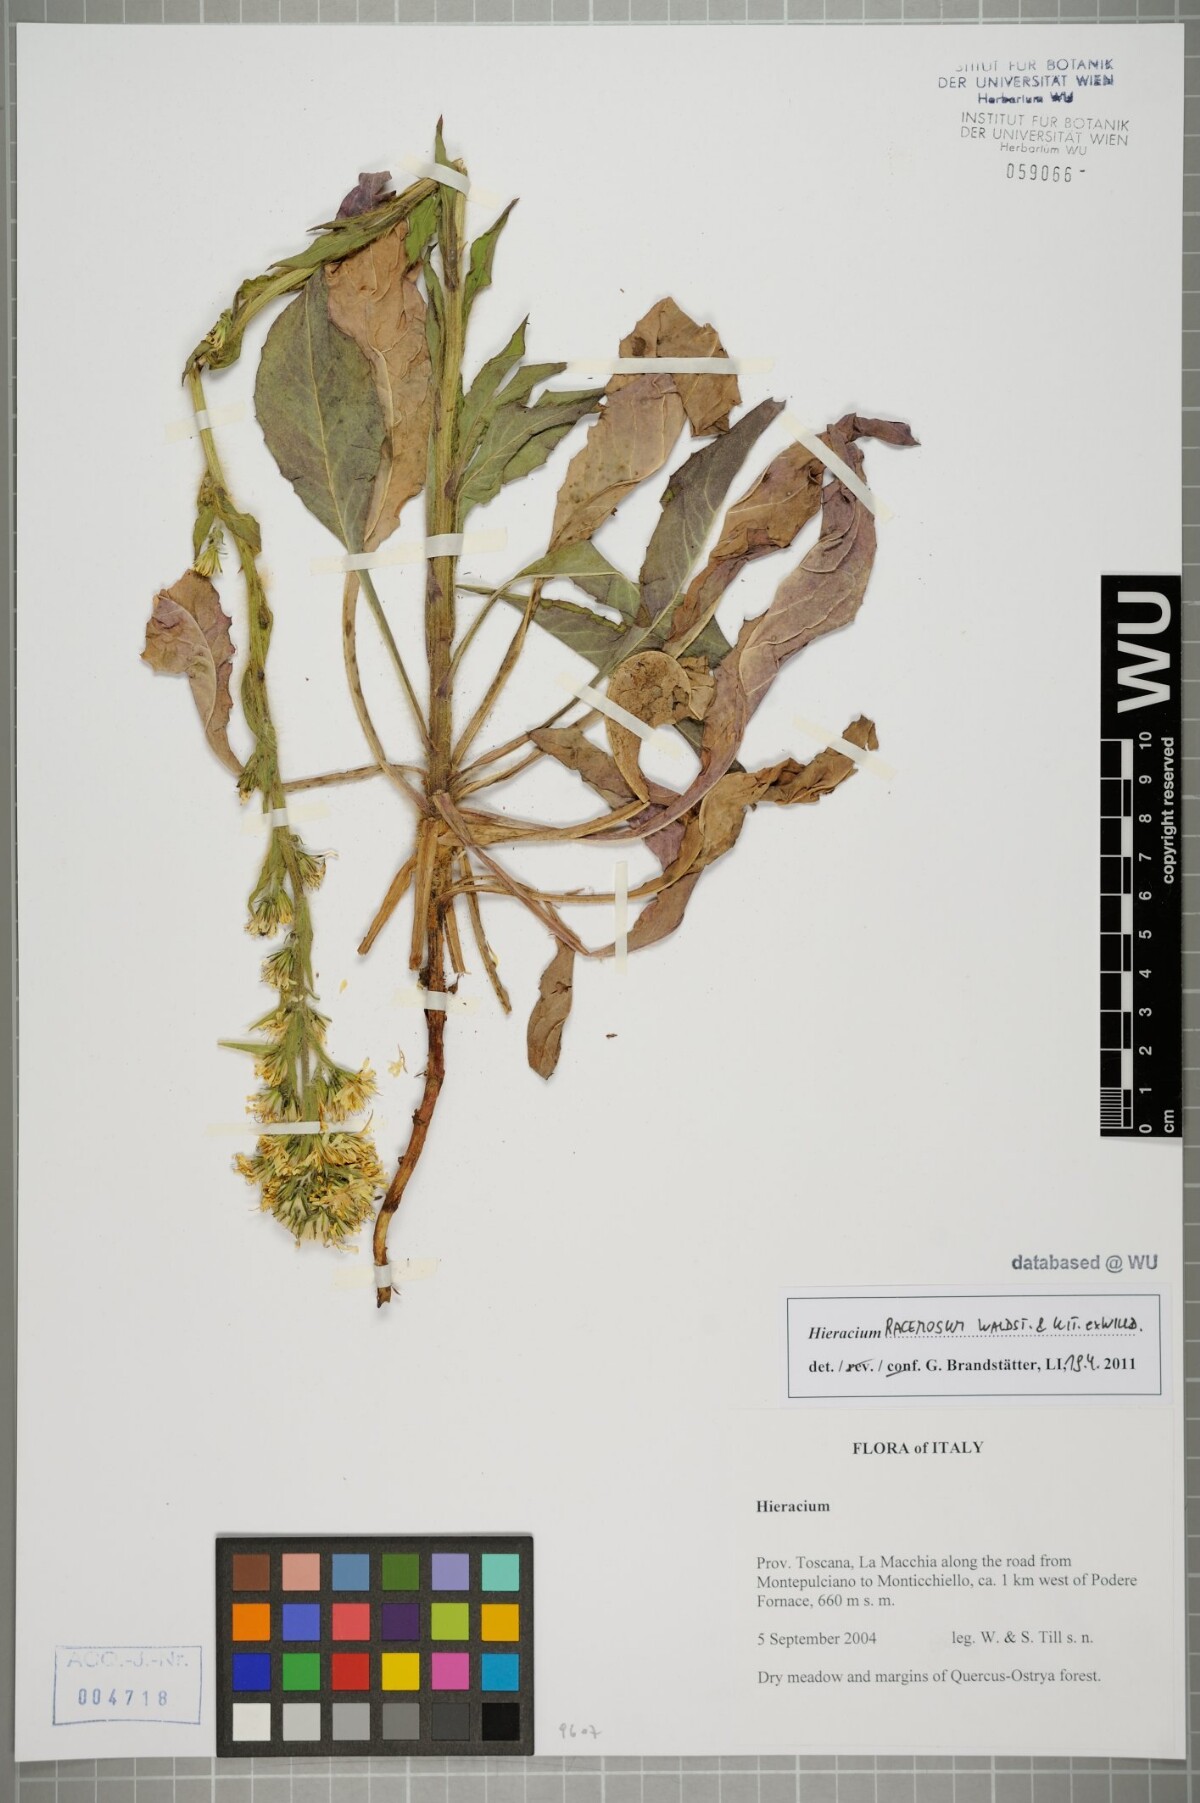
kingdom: Plantae
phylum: Tracheophyta
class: Magnoliopsida
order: Asterales
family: Asteraceae
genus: Hieracium
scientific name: Hieracium racemosum
